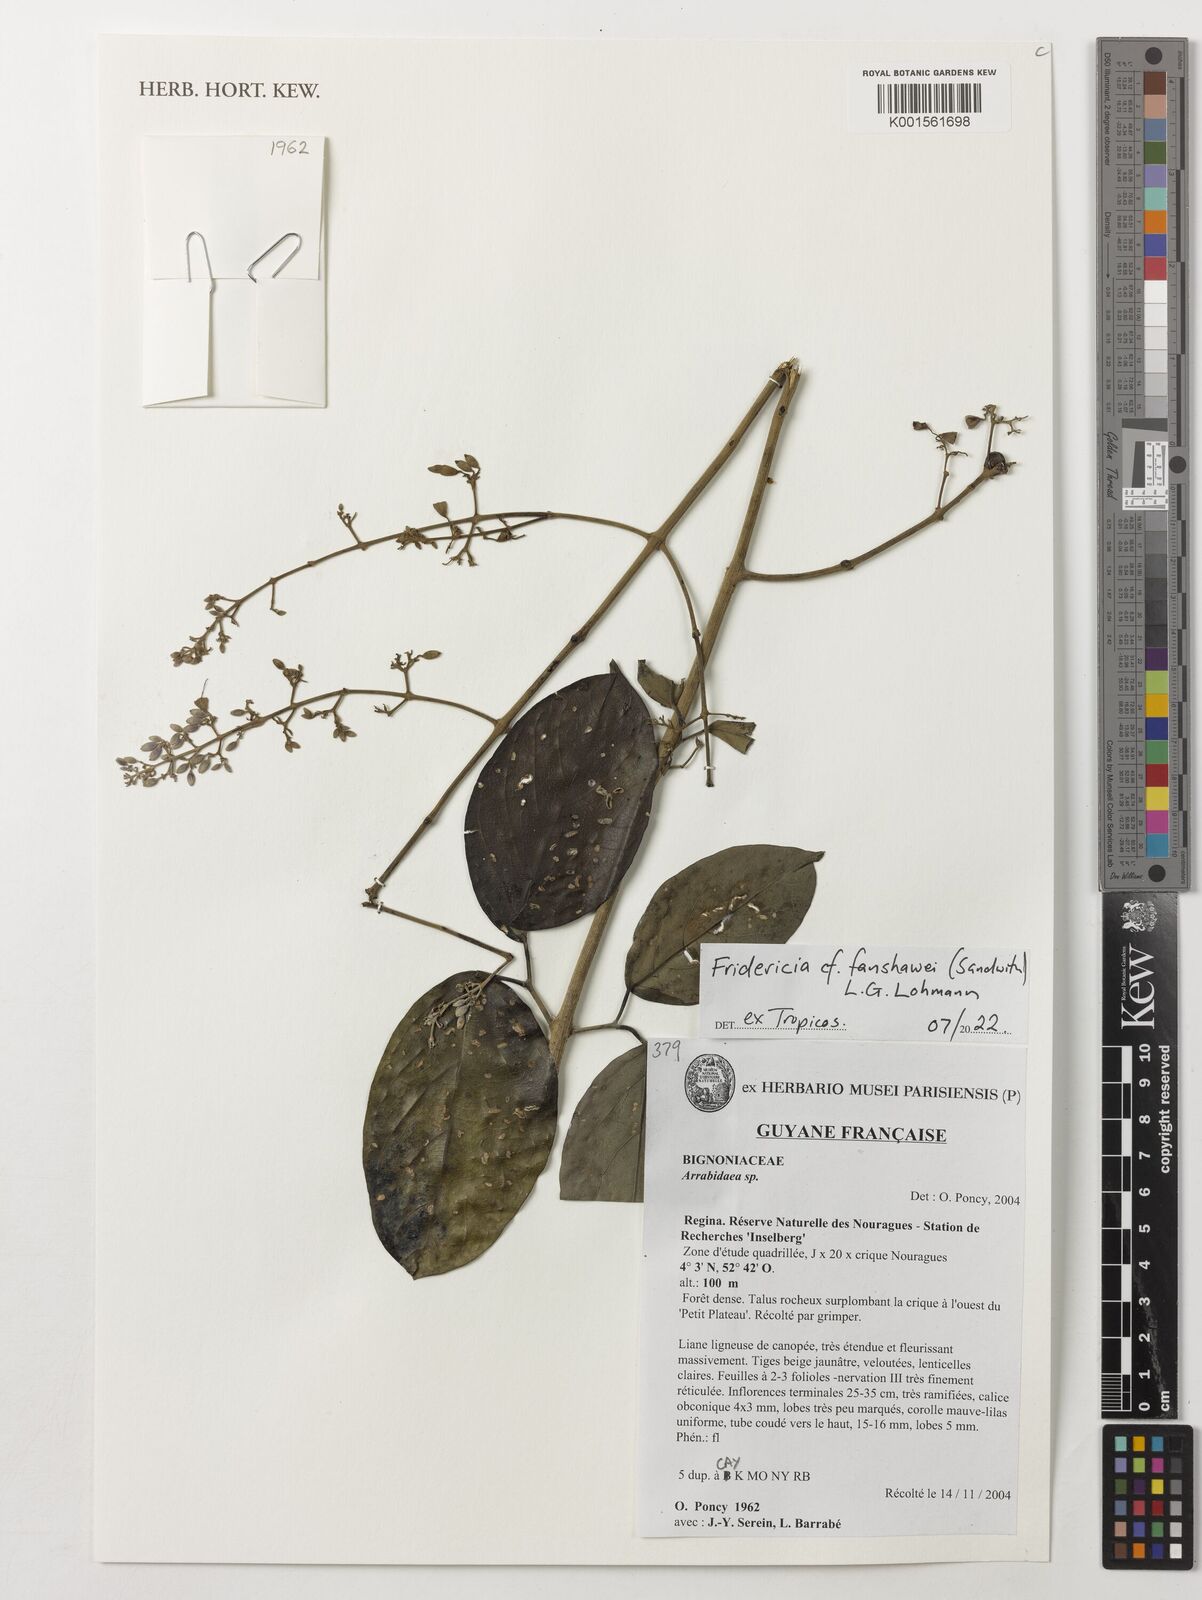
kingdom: Plantae
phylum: Tracheophyta
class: Magnoliopsida
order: Lamiales
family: Bignoniaceae
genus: Fridericia
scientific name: Fridericia fanshawei
